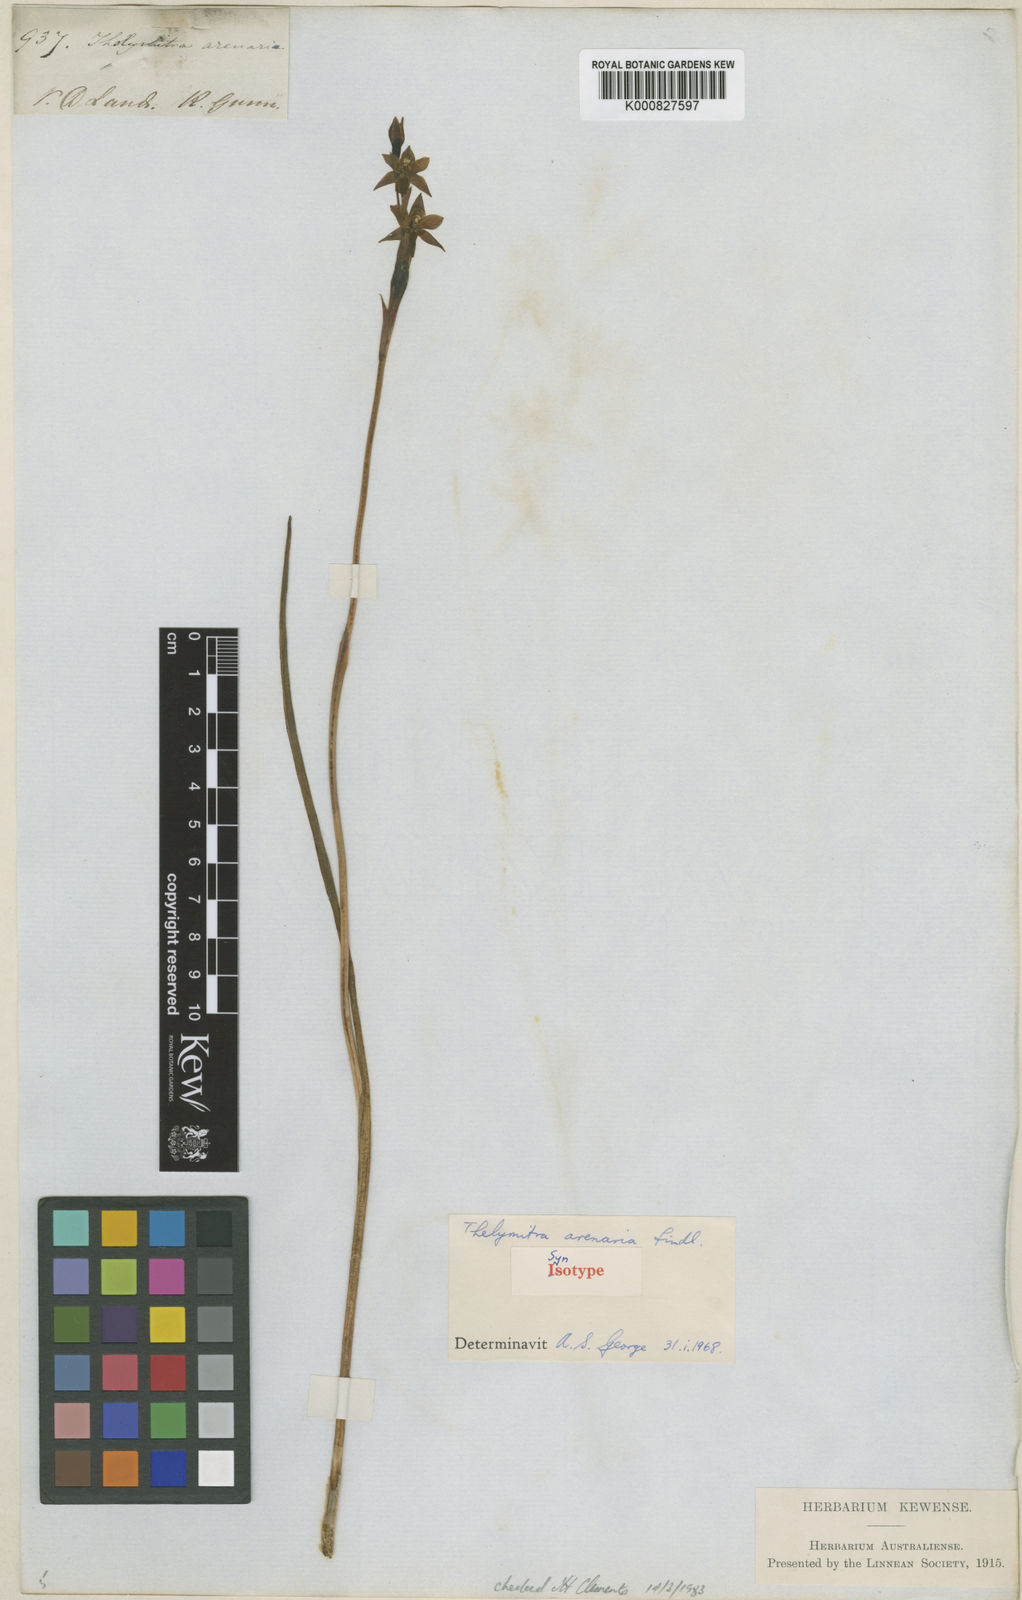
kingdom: Plantae
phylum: Tracheophyta
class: Liliopsida
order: Asparagales
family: Orchidaceae
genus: Thelymitra
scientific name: Thelymitra arenaria
